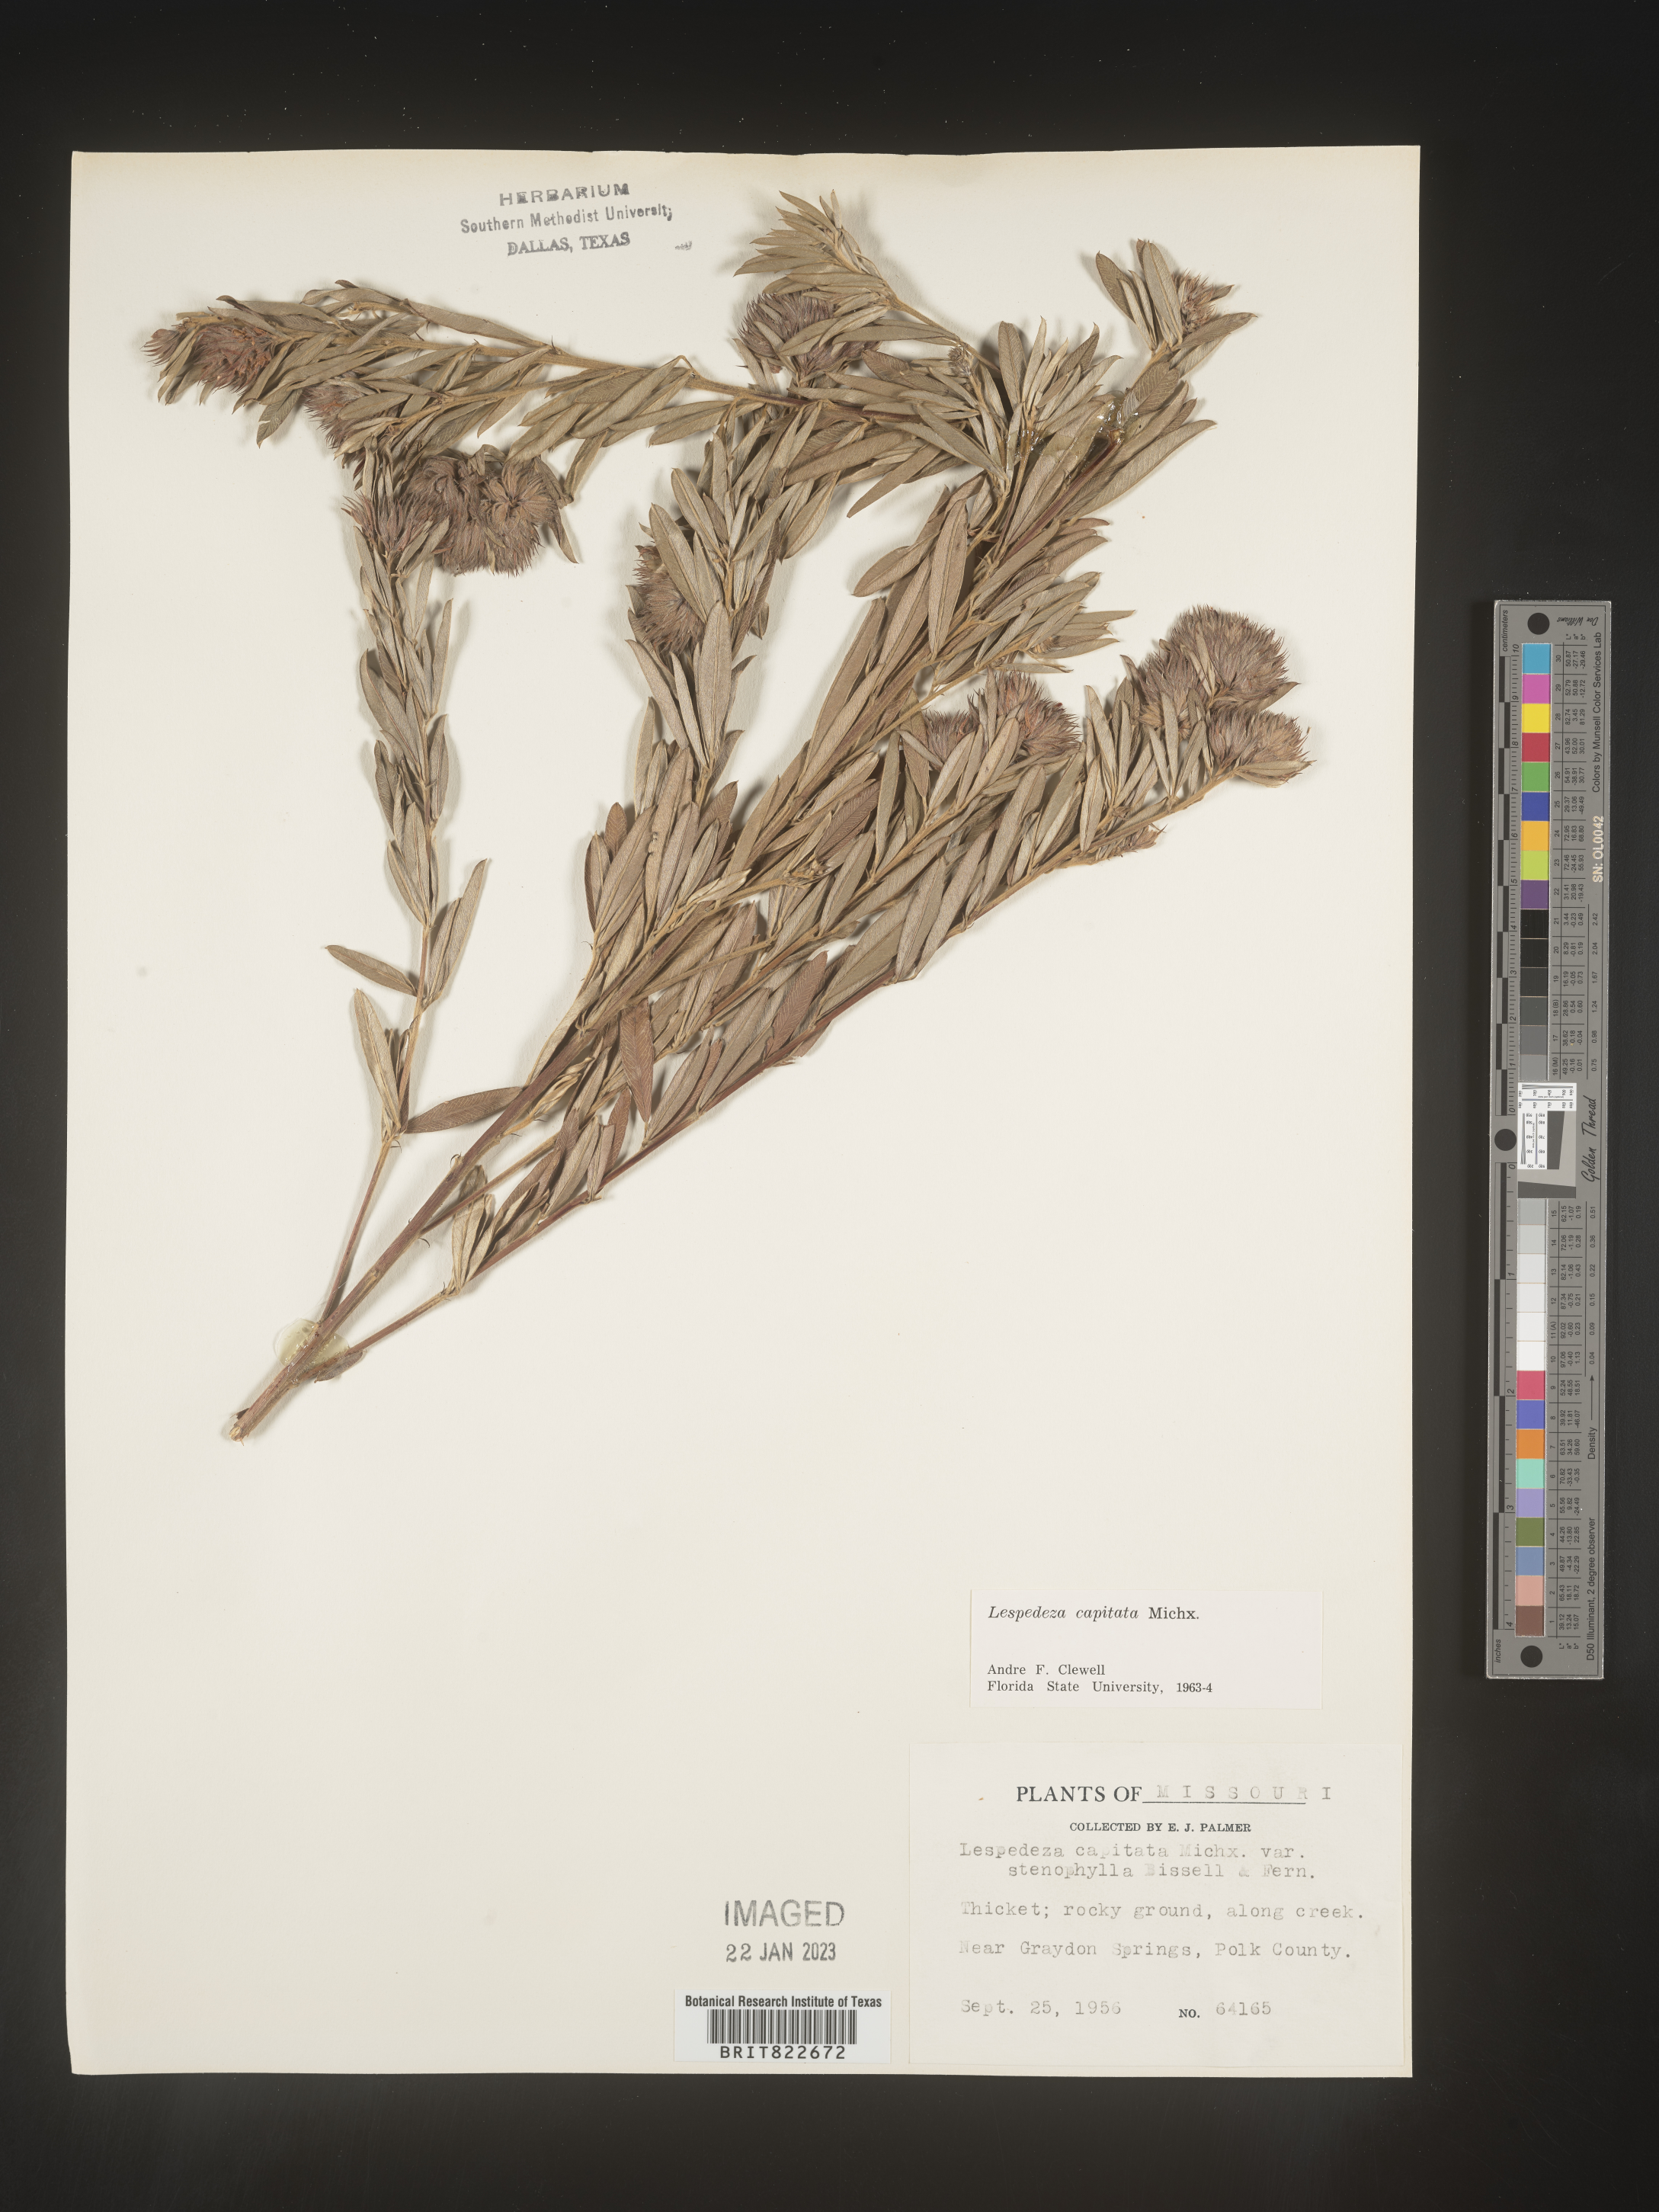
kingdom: Plantae
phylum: Tracheophyta
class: Magnoliopsida
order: Fabales
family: Fabaceae
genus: Lespedeza
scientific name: Lespedeza capitata
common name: Dusty clover
